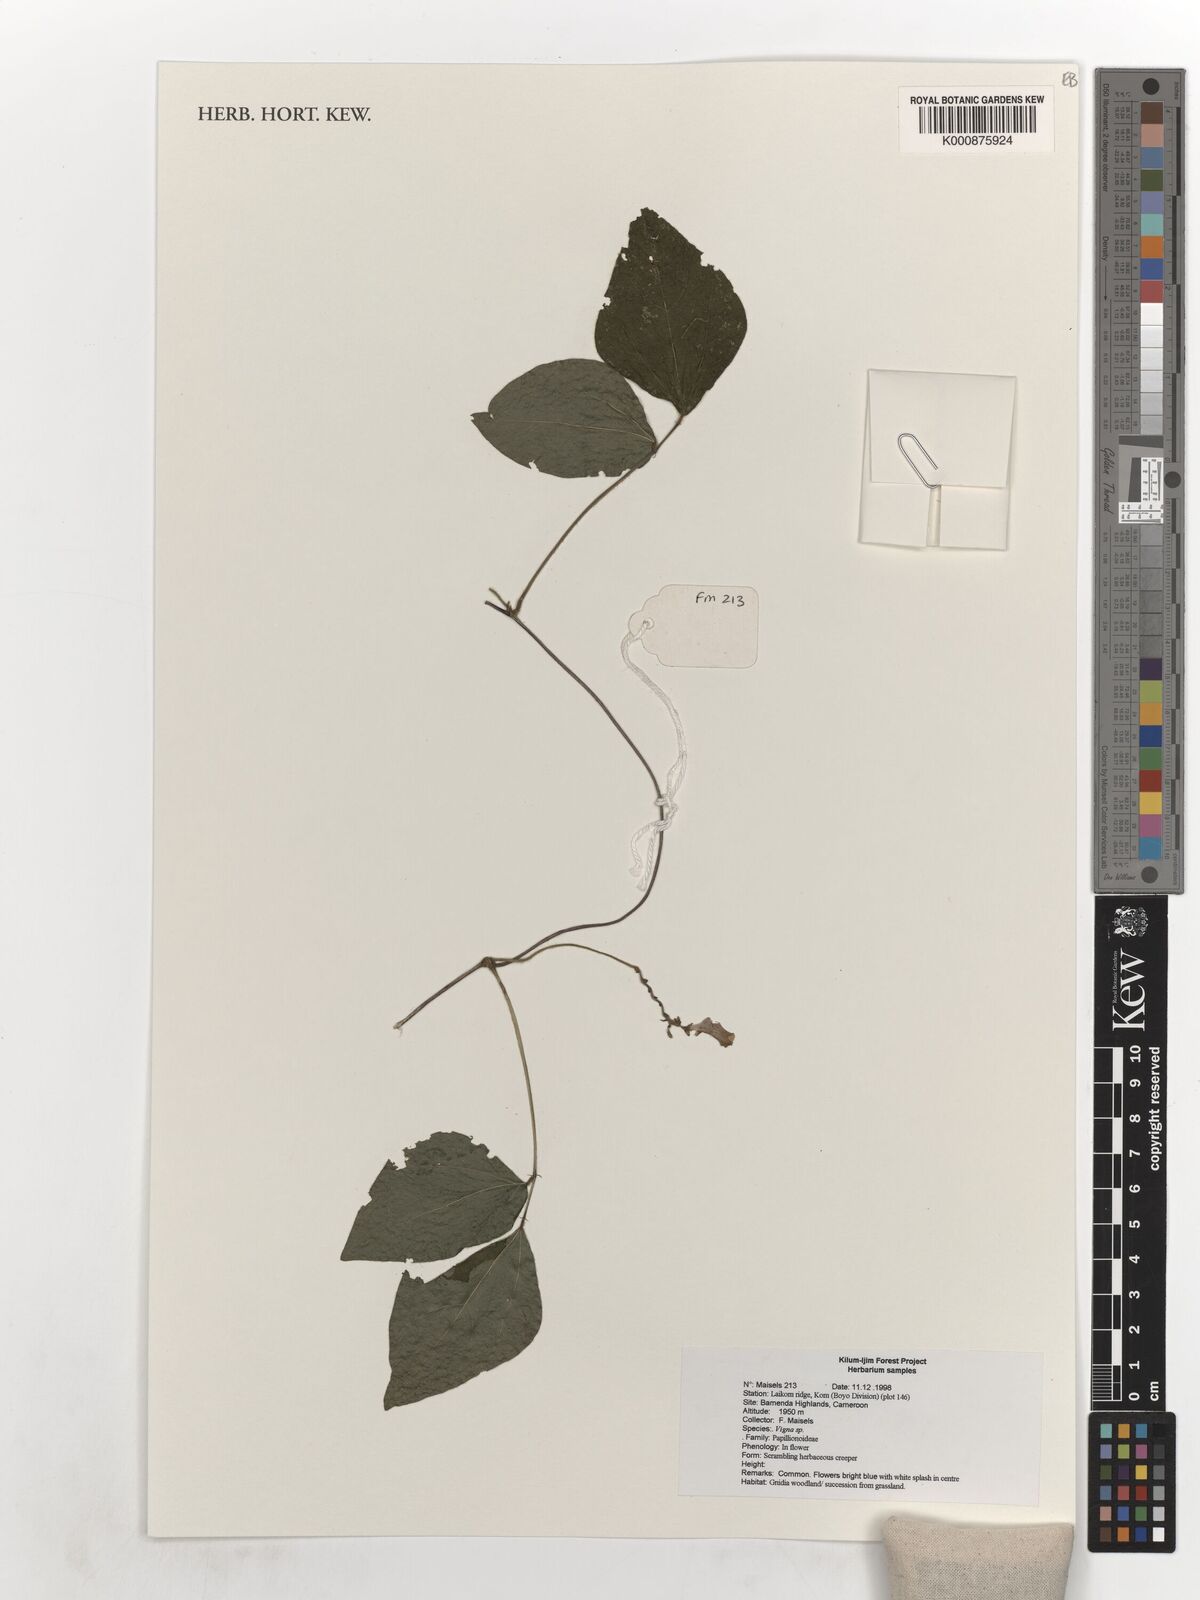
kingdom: Plantae
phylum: Tracheophyta
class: Magnoliopsida
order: Fabales
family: Fabaceae
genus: Vigna
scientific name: Vigna
